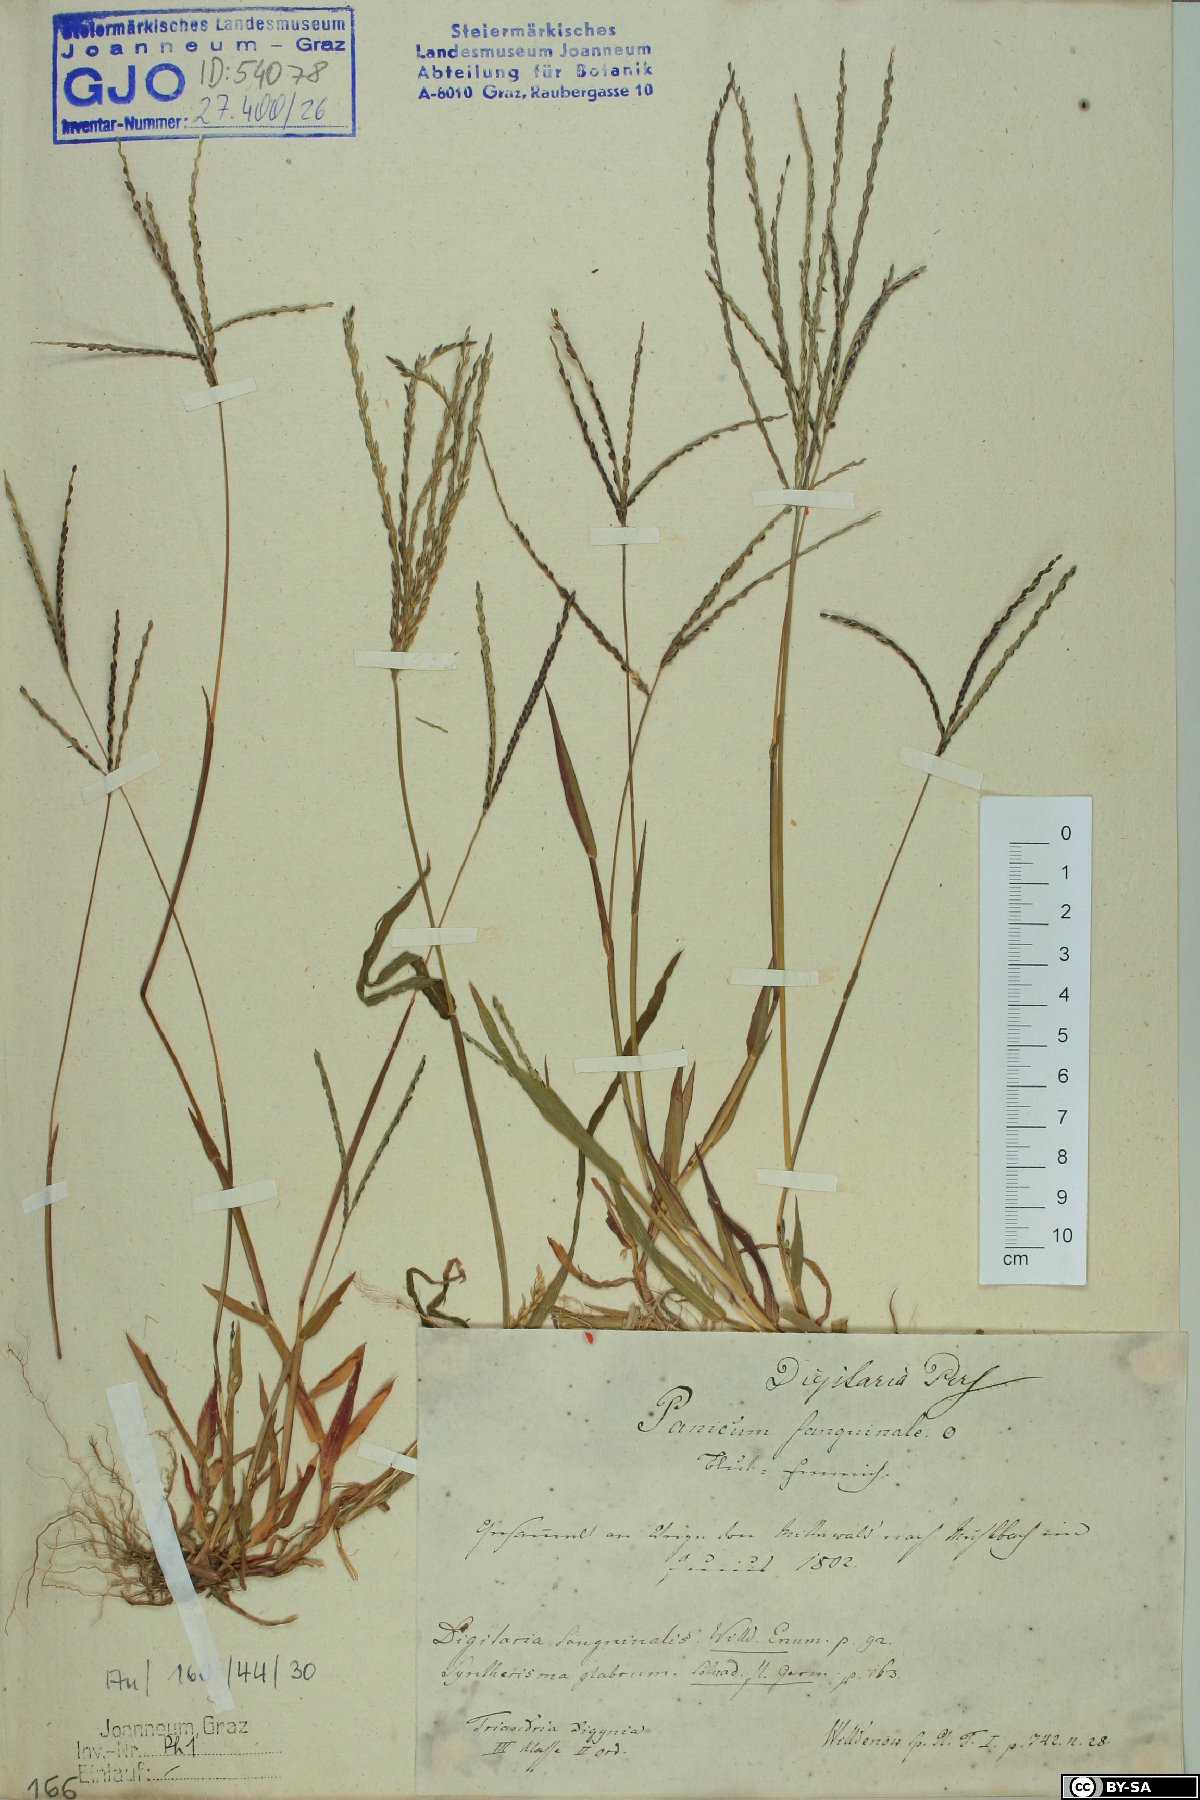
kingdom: Plantae
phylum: Tracheophyta
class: Liliopsida
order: Poales
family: Poaceae
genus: Digitaria
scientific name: Digitaria sanguinalis
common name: Hairy crabgrass
